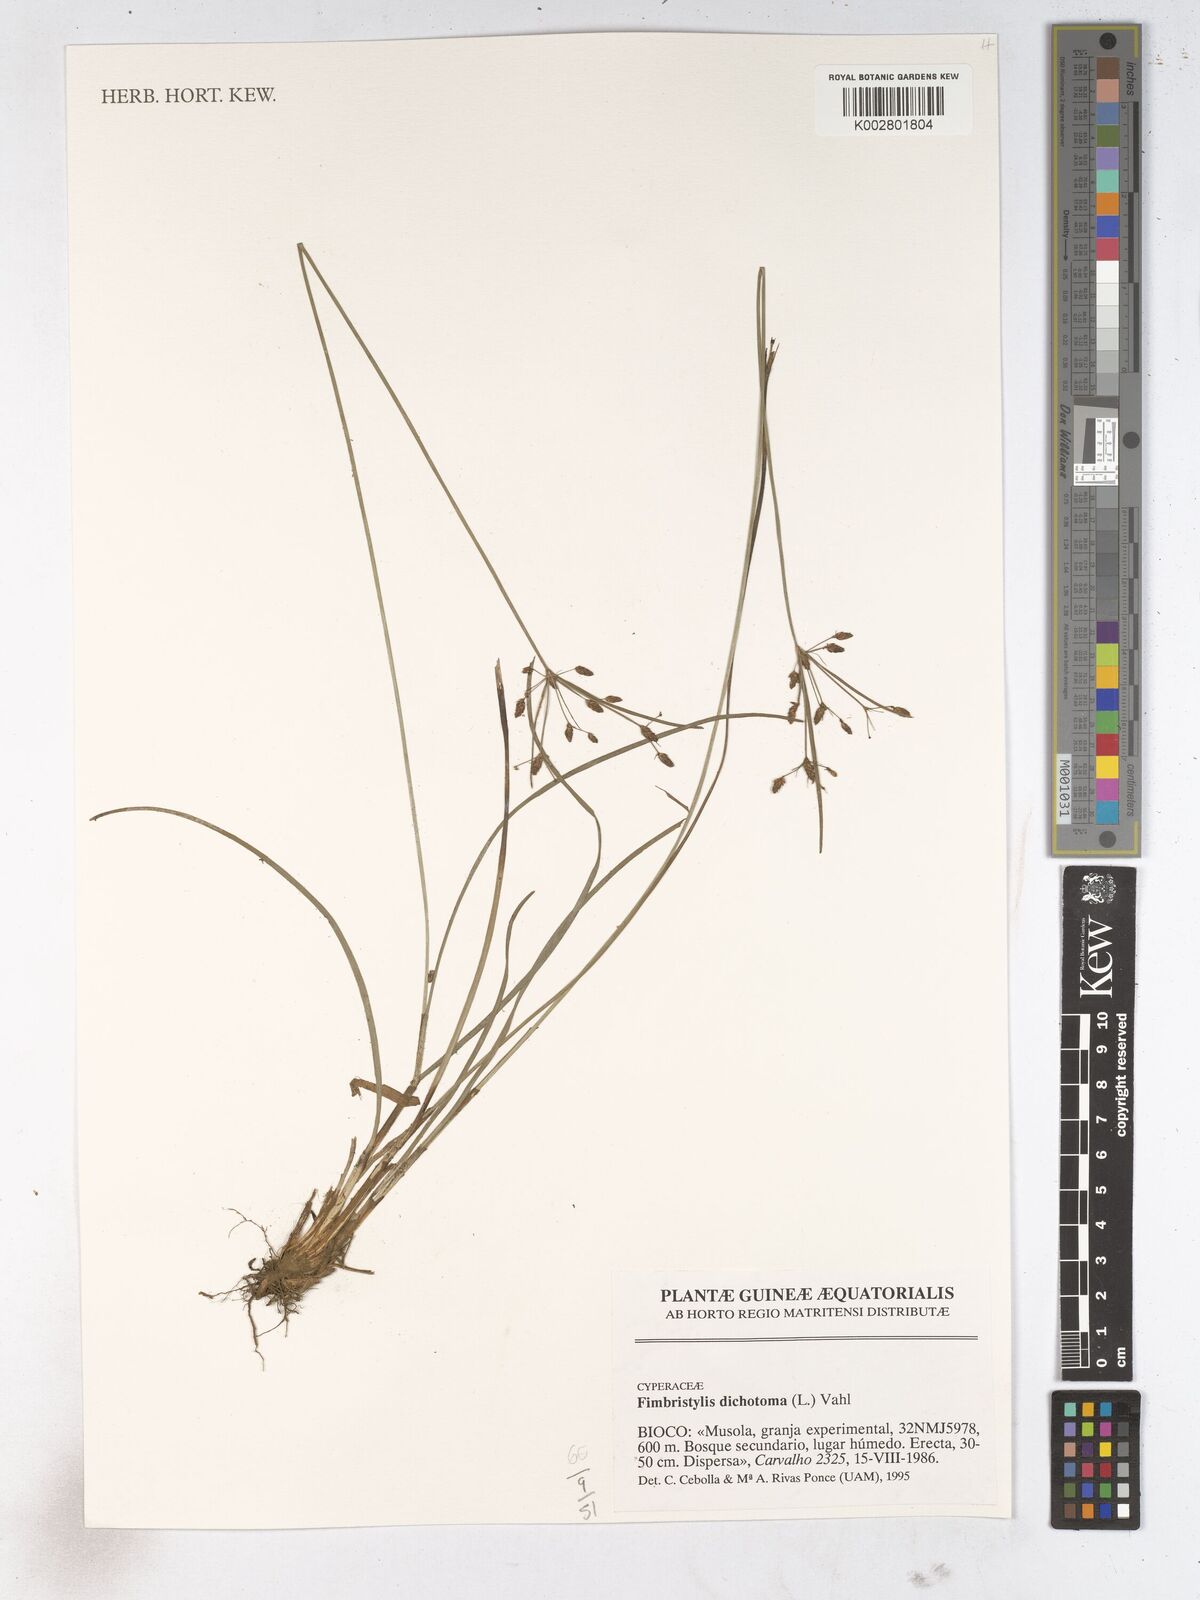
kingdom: Plantae
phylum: Tracheophyta
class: Liliopsida
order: Poales
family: Cyperaceae
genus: Fimbristylis
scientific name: Fimbristylis dichotoma
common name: Forked fimbry
